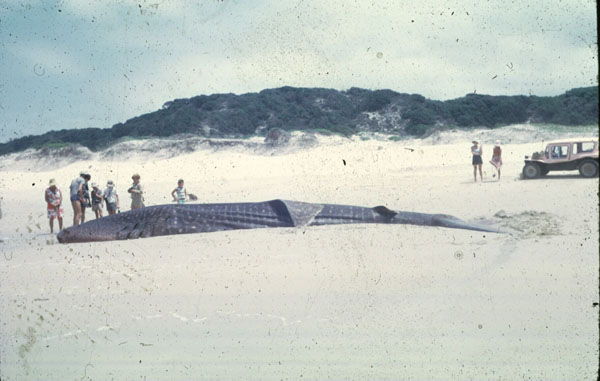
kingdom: Animalia
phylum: Chordata
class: Elasmobranchii
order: Orectolobiformes
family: Rhincodontidae
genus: Rhincodon
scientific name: Rhincodon typus
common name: Whale shark
